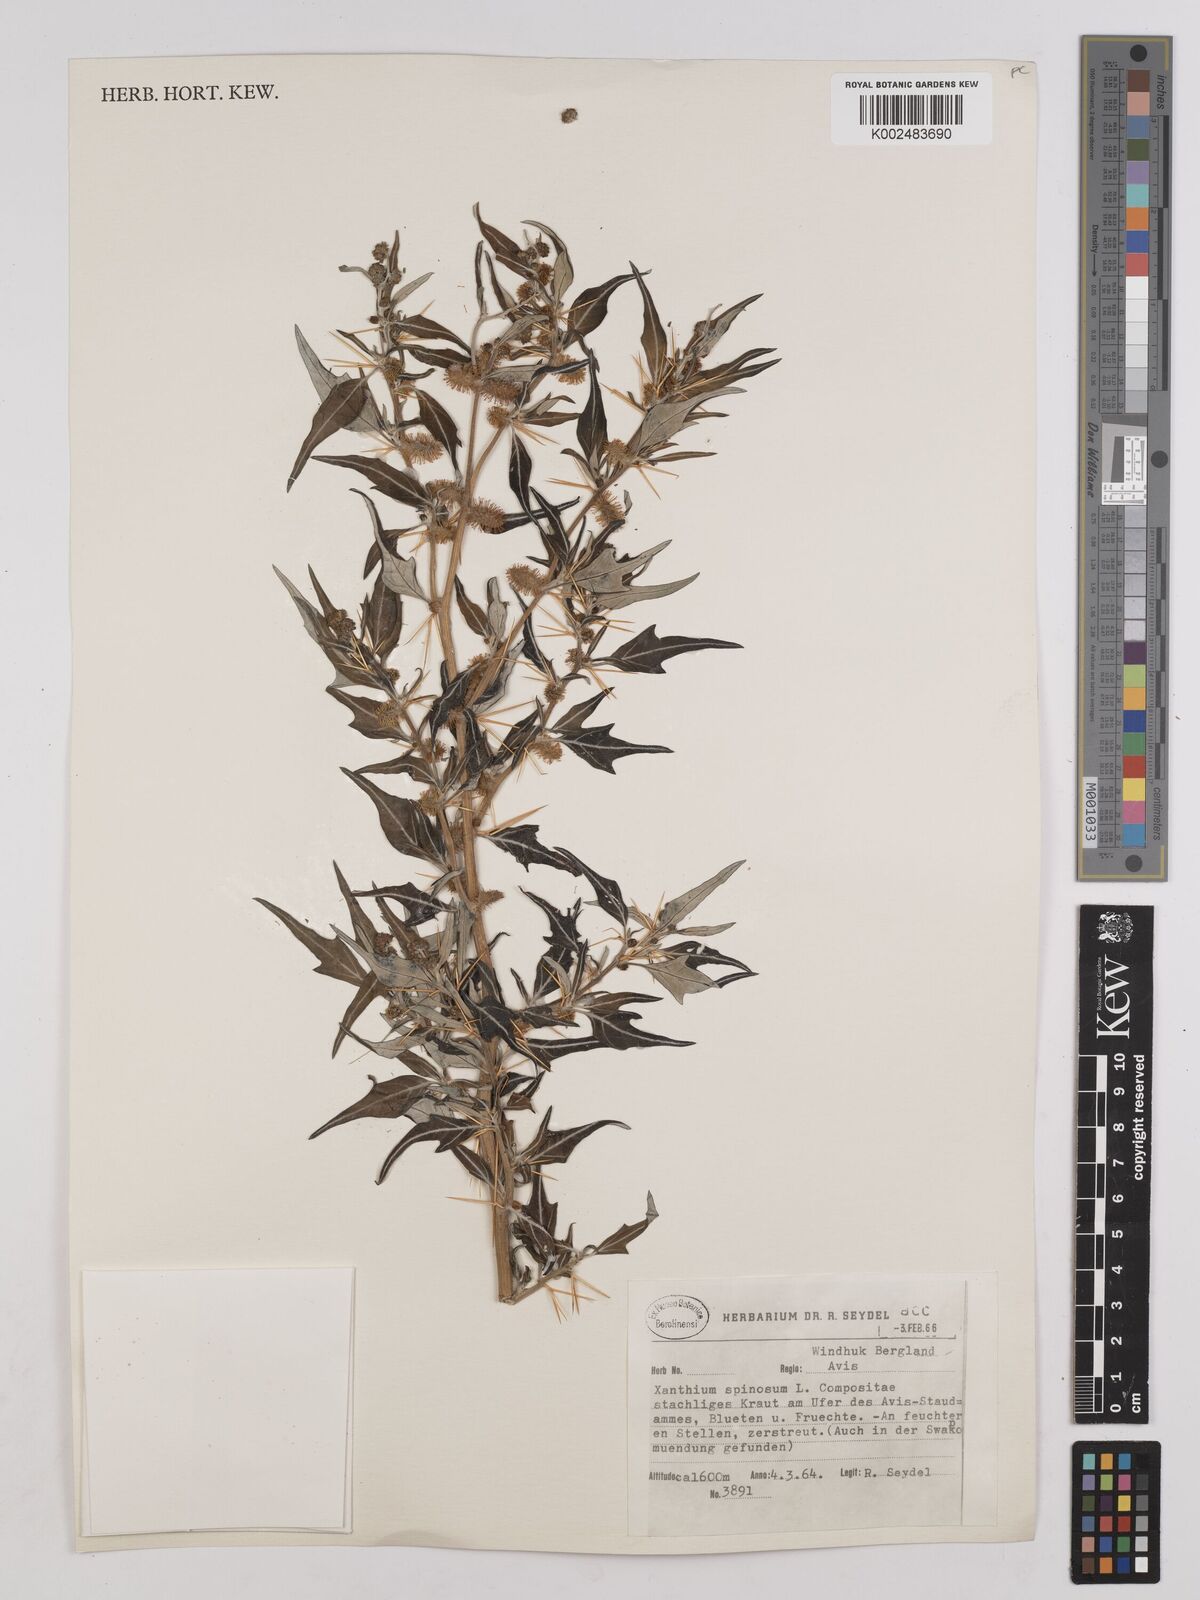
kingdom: Plantae
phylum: Tracheophyta
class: Magnoliopsida
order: Asterales
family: Asteraceae
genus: Xanthium
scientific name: Xanthium spinosum
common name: Spiny cocklebur
